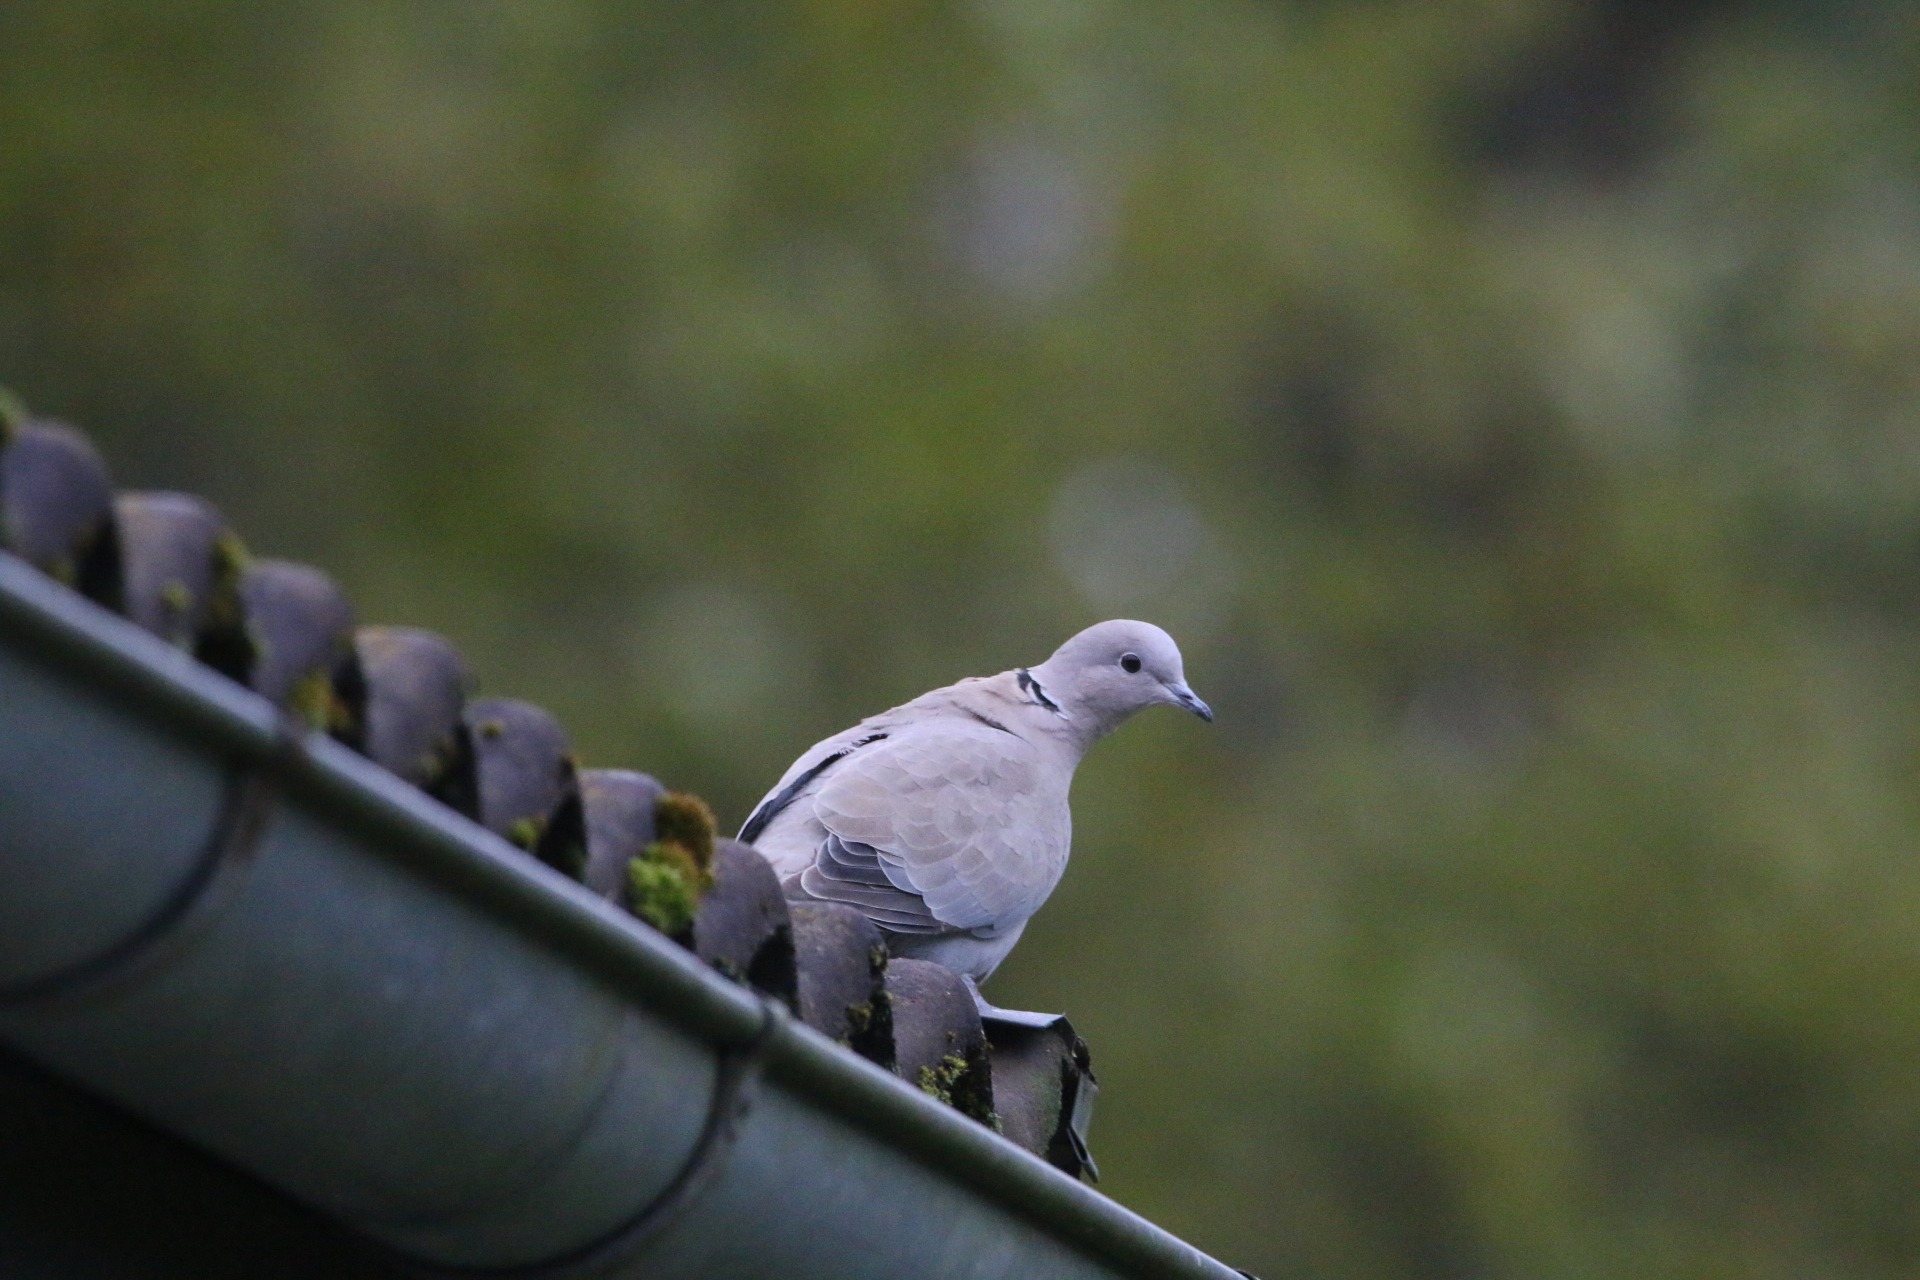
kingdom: Animalia
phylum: Chordata
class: Aves
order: Columbiformes
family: Columbidae
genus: Streptopelia
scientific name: Streptopelia decaocto
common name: Tyrkerdue
